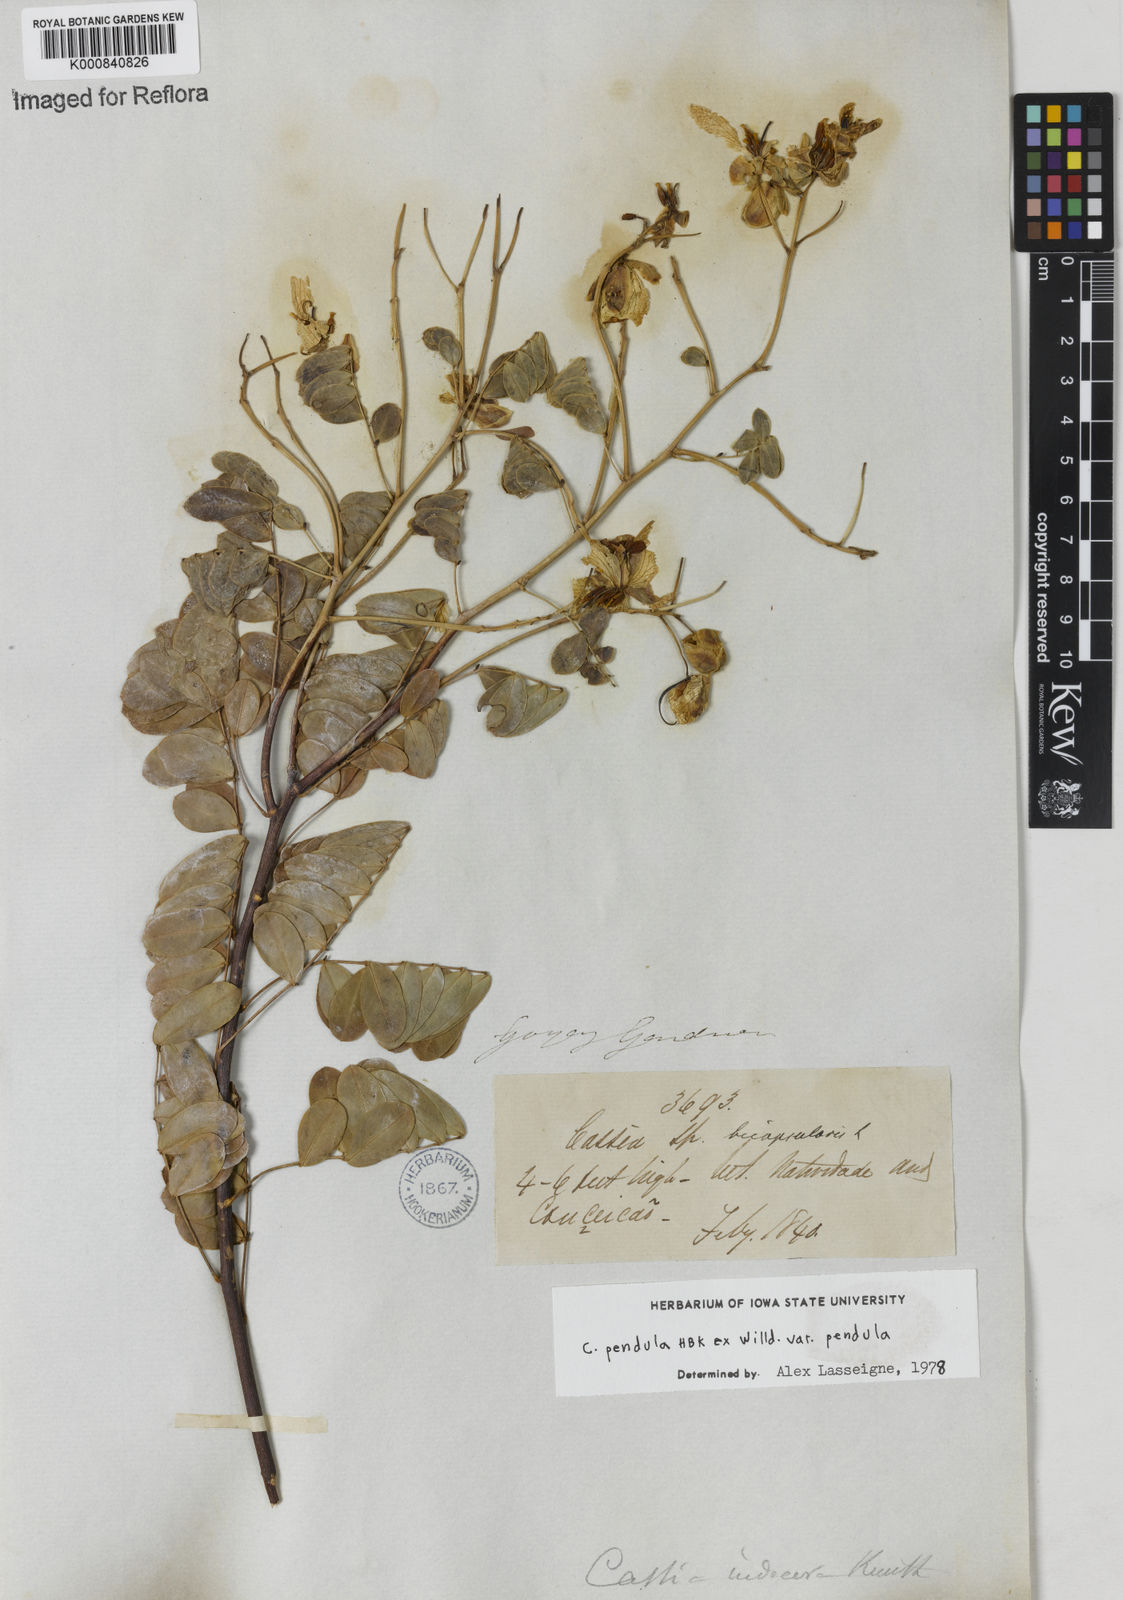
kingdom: Plantae
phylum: Tracheophyta
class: Magnoliopsida
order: Fabales
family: Fabaceae
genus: Senna
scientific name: Senna pendula
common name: Easter cassia
